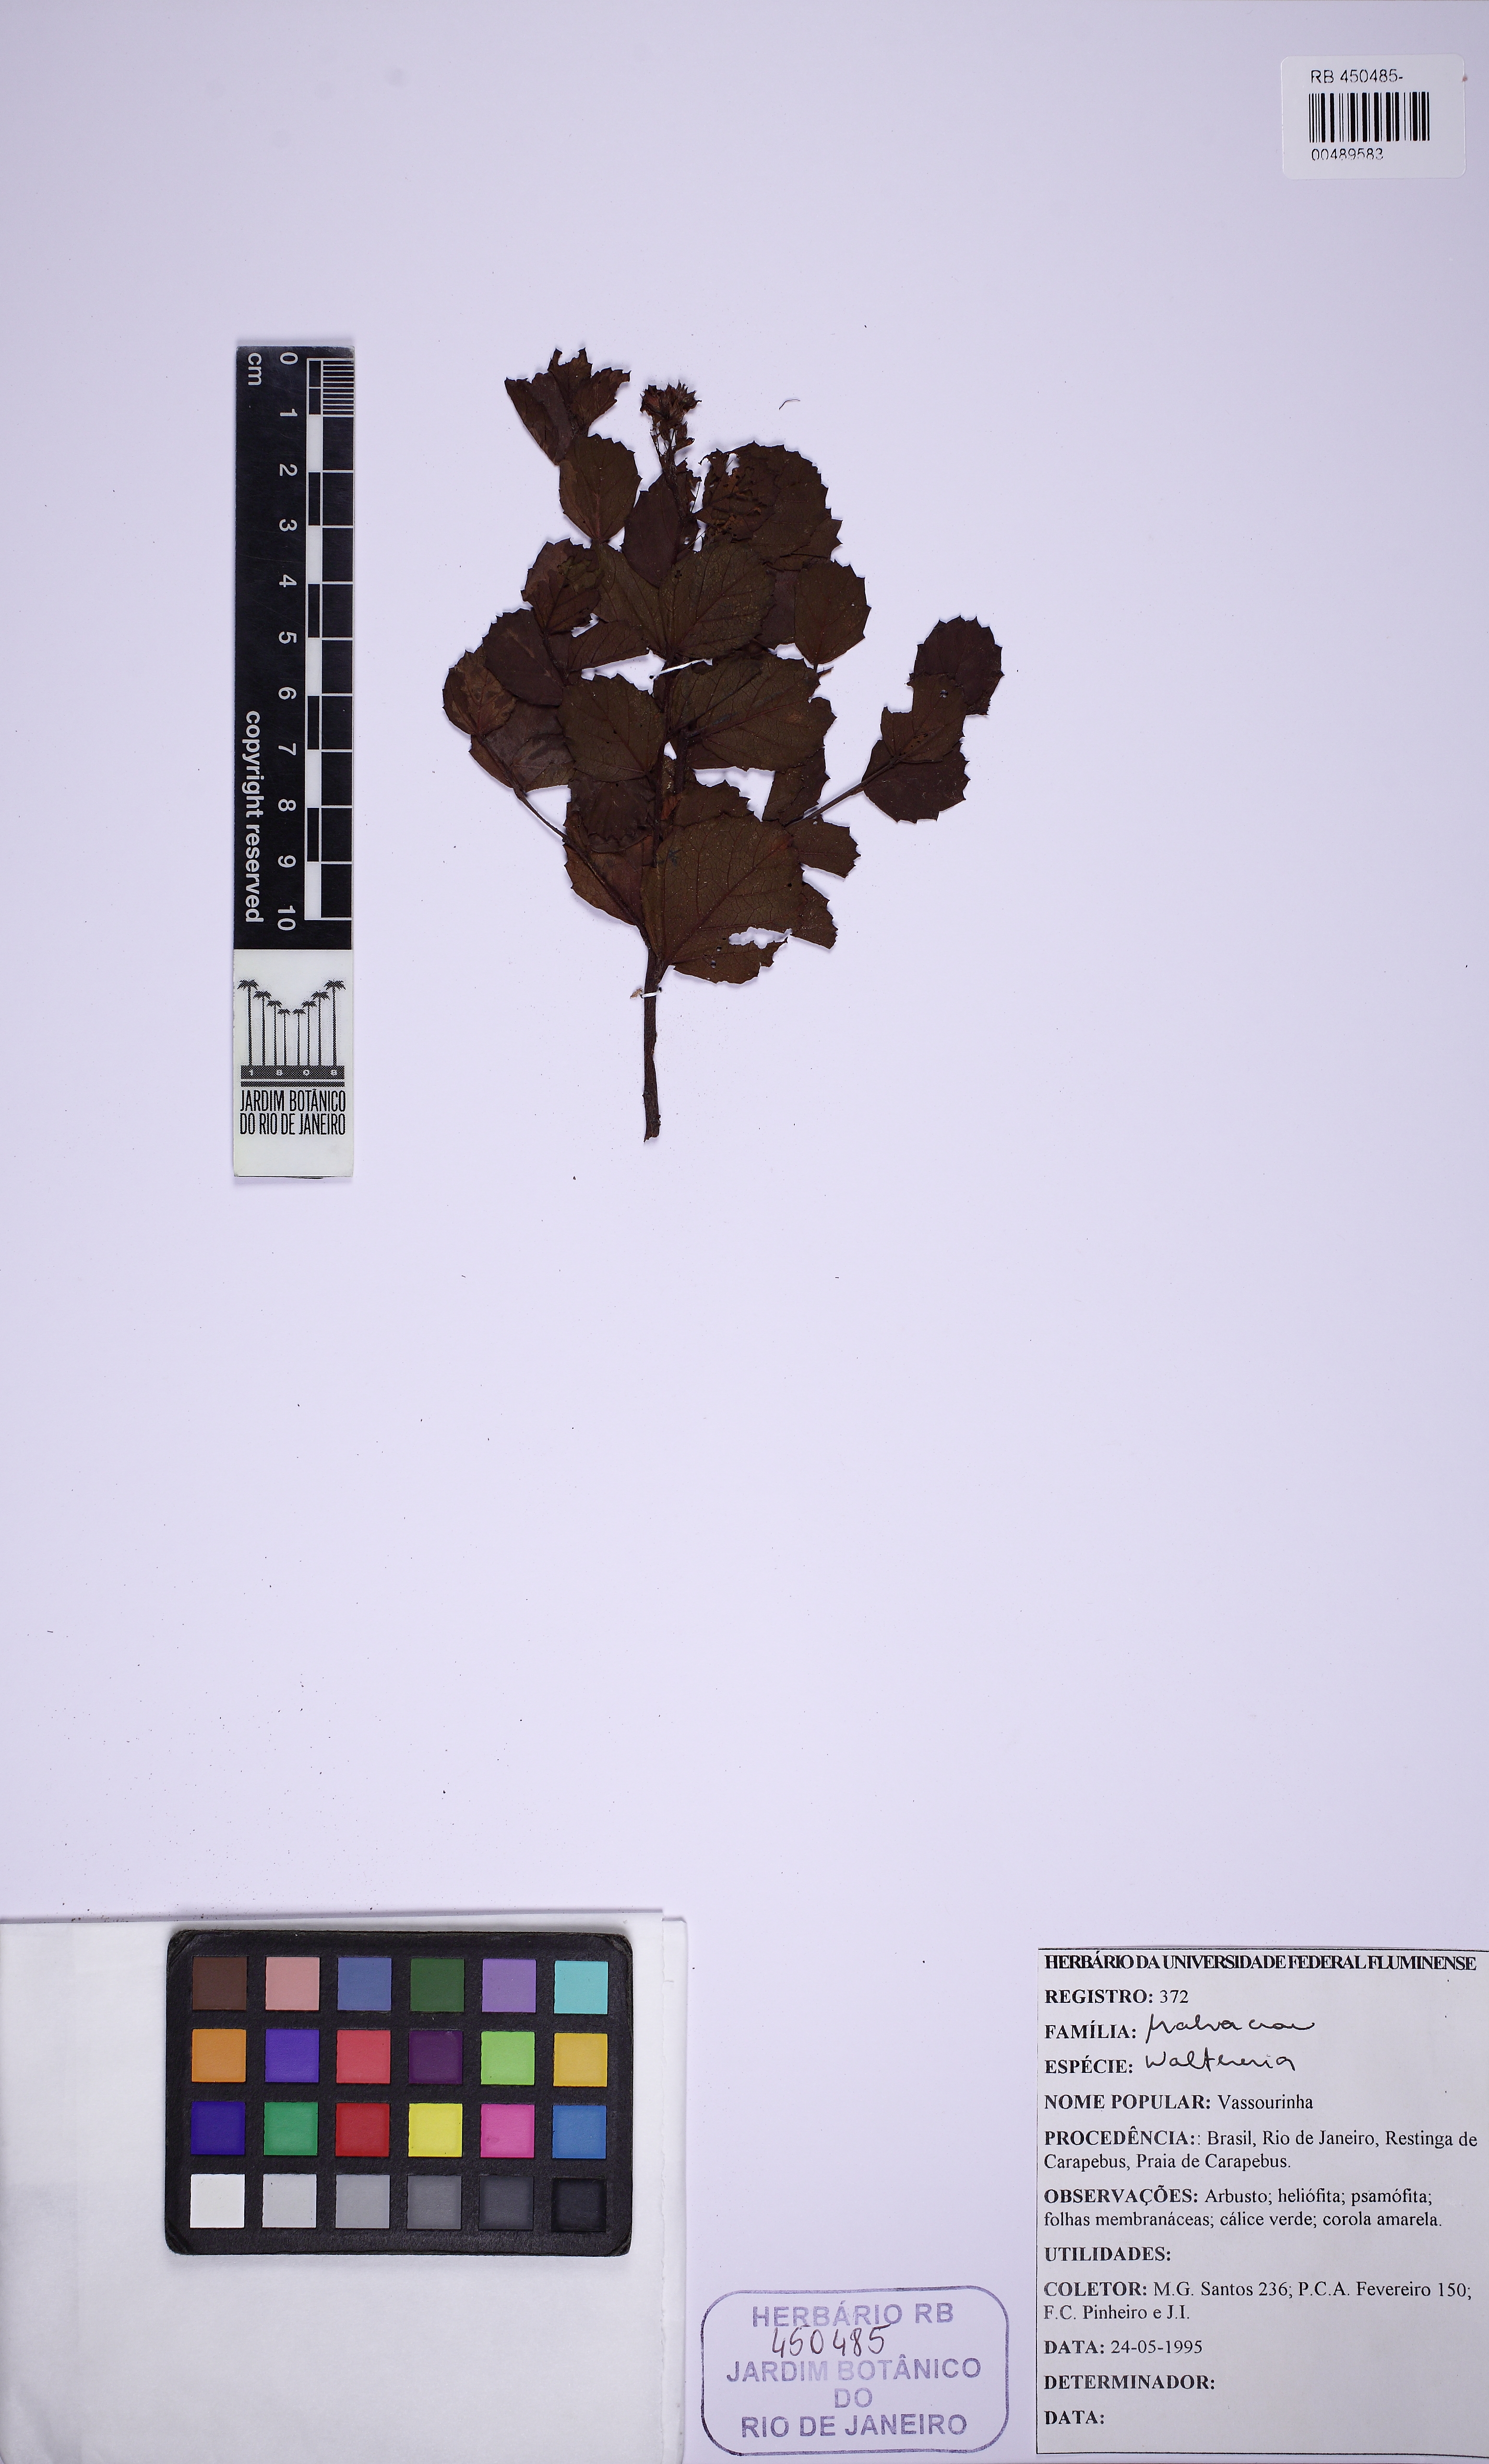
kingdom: Plantae
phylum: Tracheophyta
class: Magnoliopsida
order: Malvales
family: Malvaceae
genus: Waltheria
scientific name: Waltheria maritima
